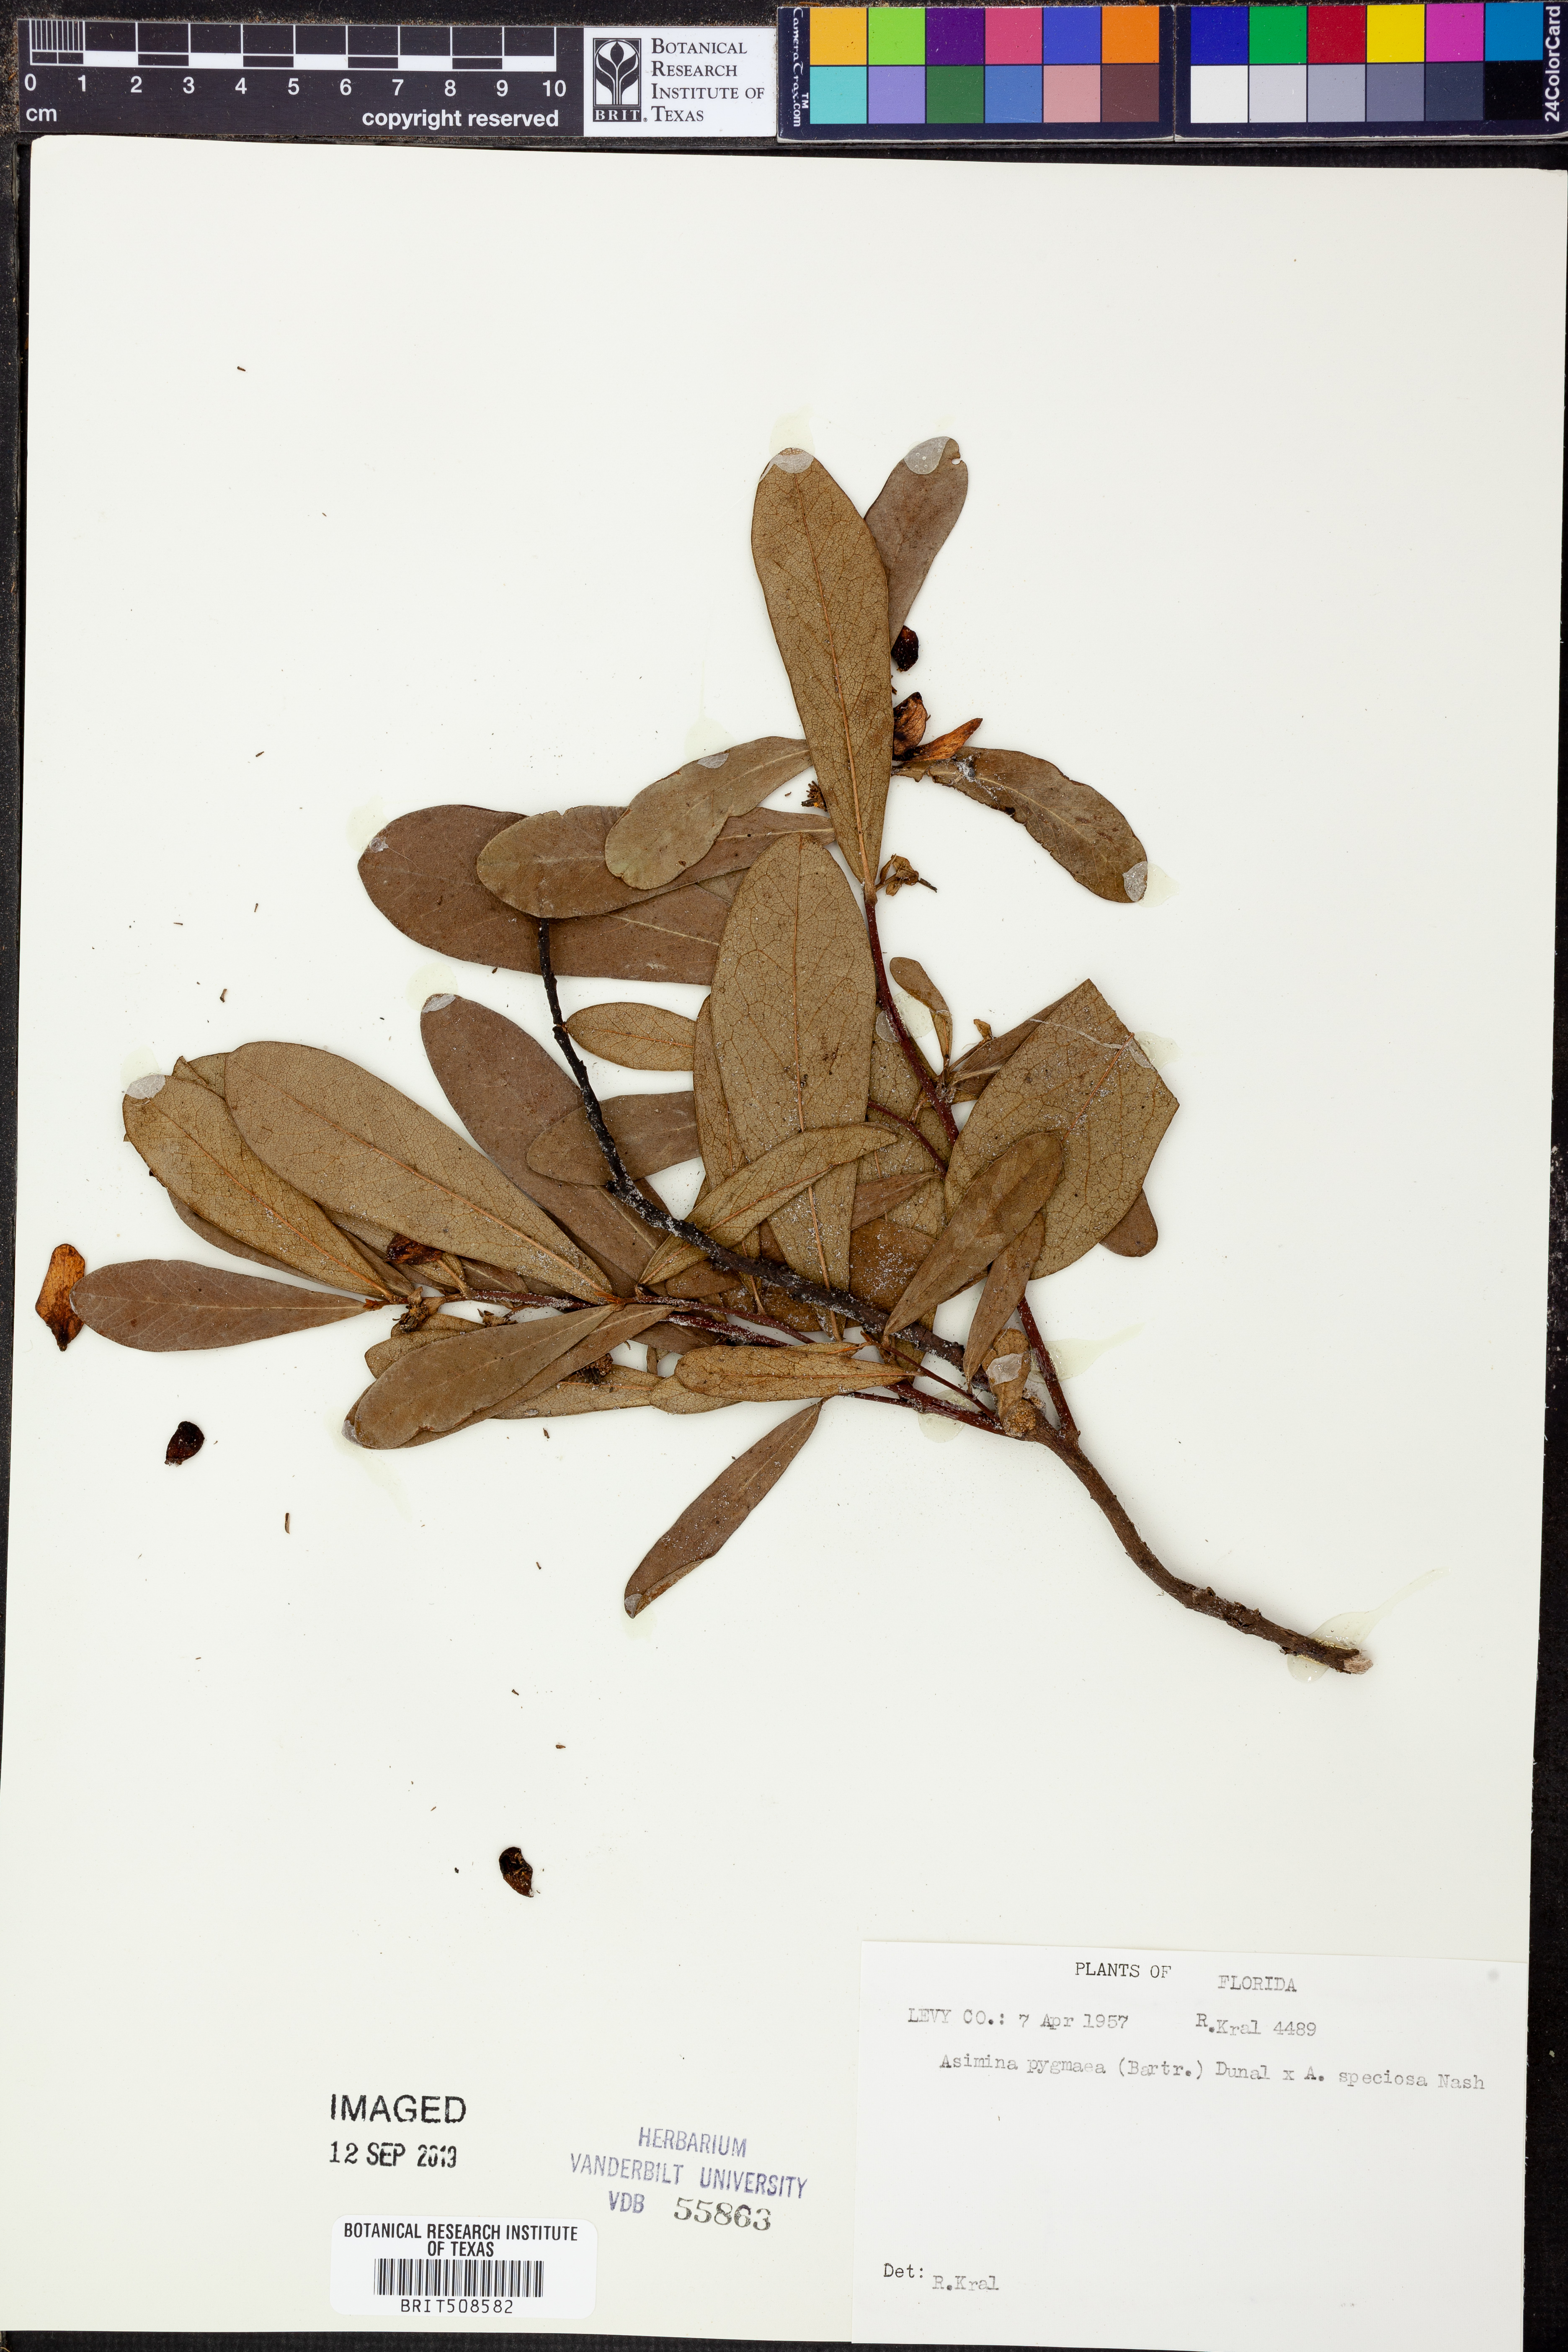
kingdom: Plantae
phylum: Tracheophyta
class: Magnoliopsida
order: Magnoliales
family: Annonaceae
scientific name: Annonaceae
